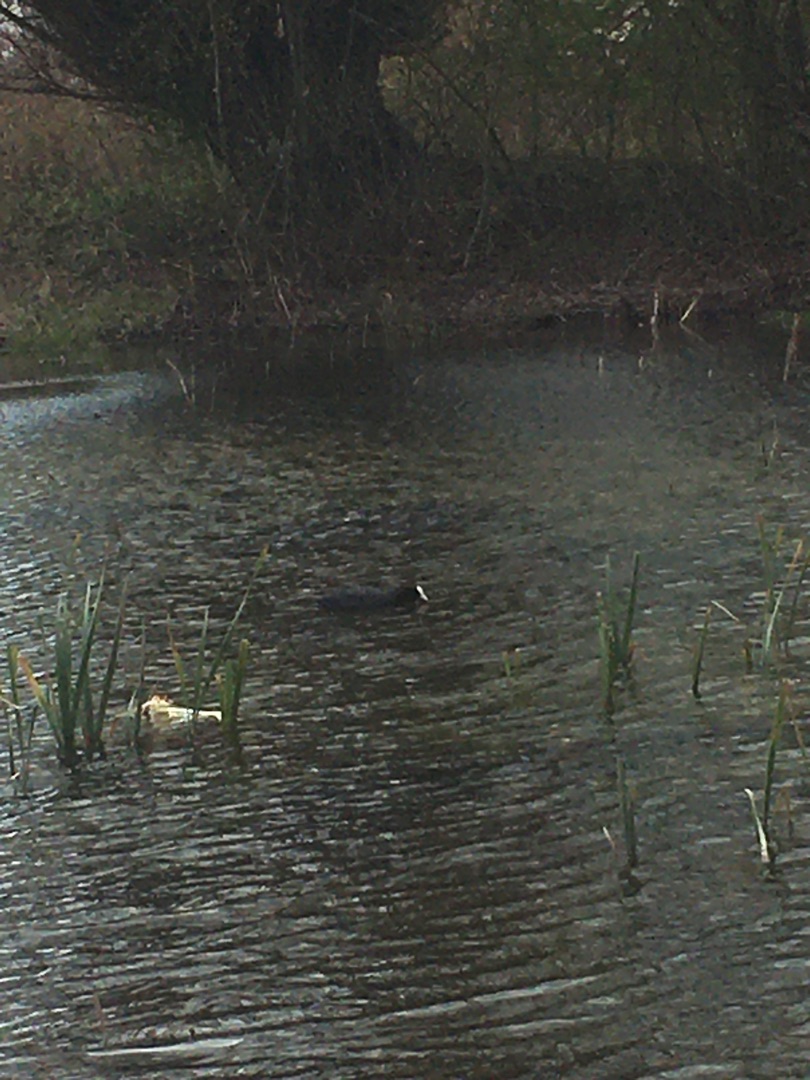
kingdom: Animalia
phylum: Chordata
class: Aves
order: Gruiformes
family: Rallidae
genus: Fulica
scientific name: Fulica atra
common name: Blishøne
